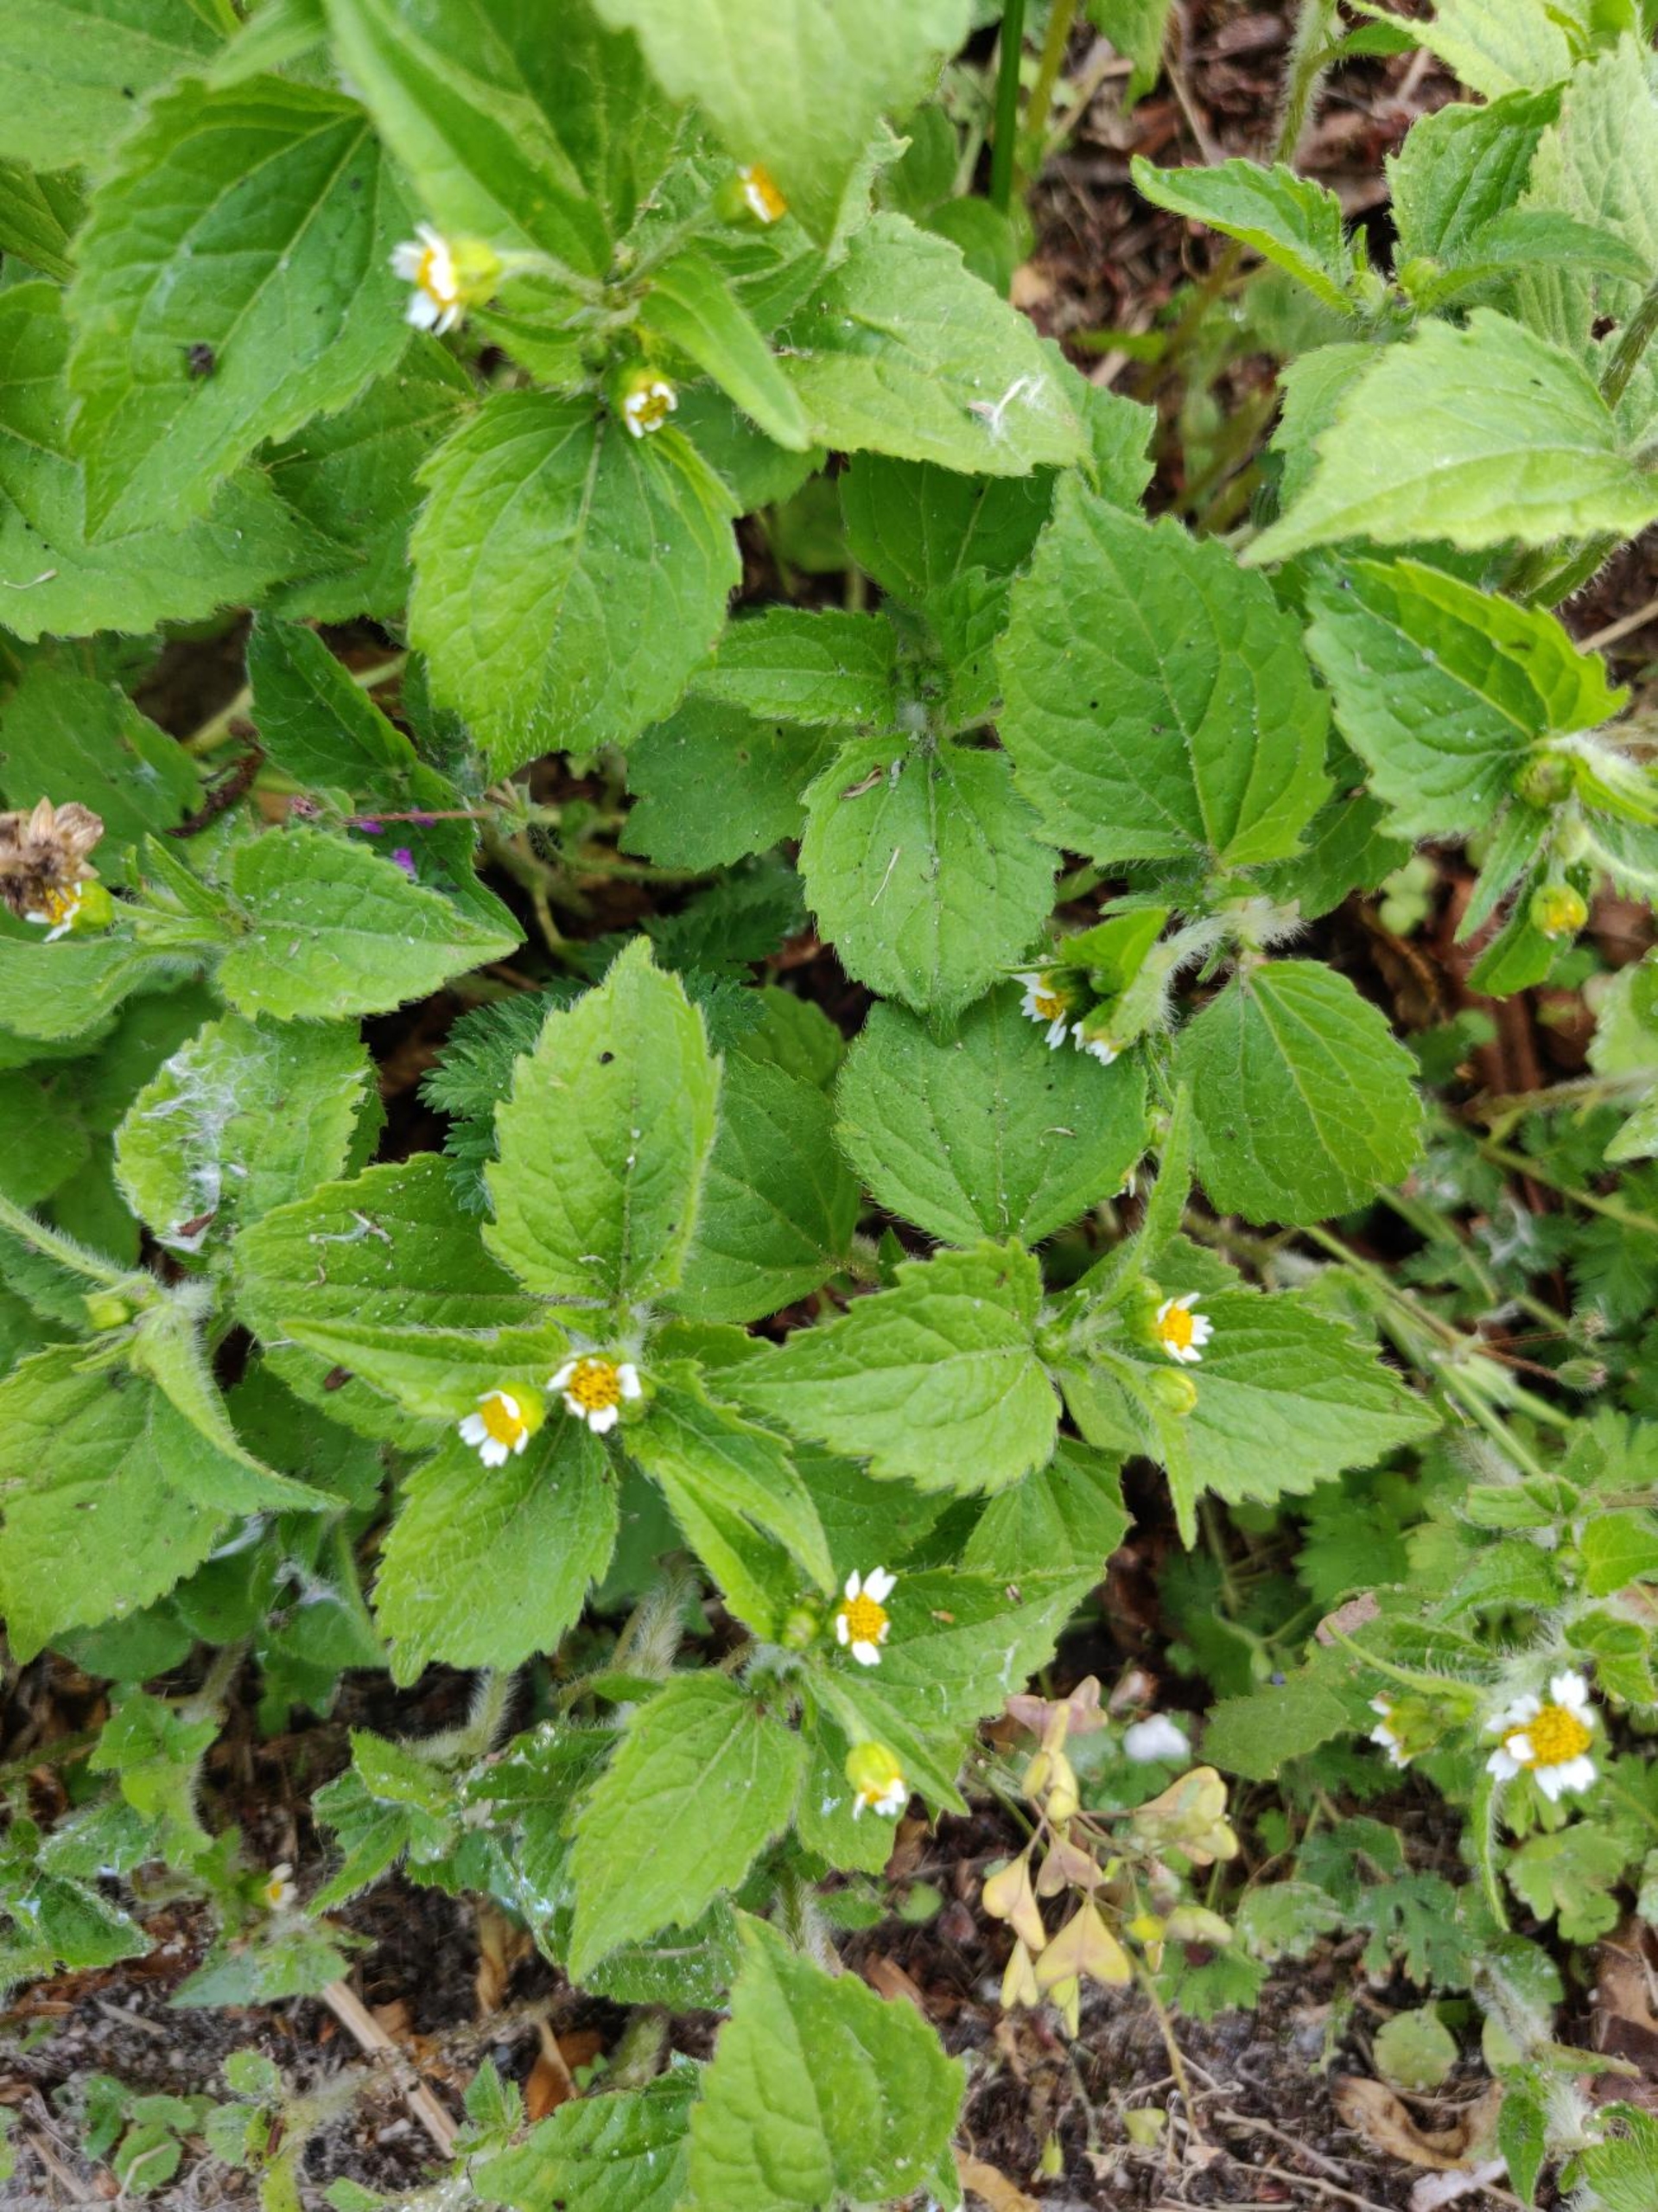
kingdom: Plantae
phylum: Tracheophyta
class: Magnoliopsida
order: Asterales
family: Asteraceae
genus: Galinsoga
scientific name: Galinsoga quadriradiata
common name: Kirtel-kortstråle
